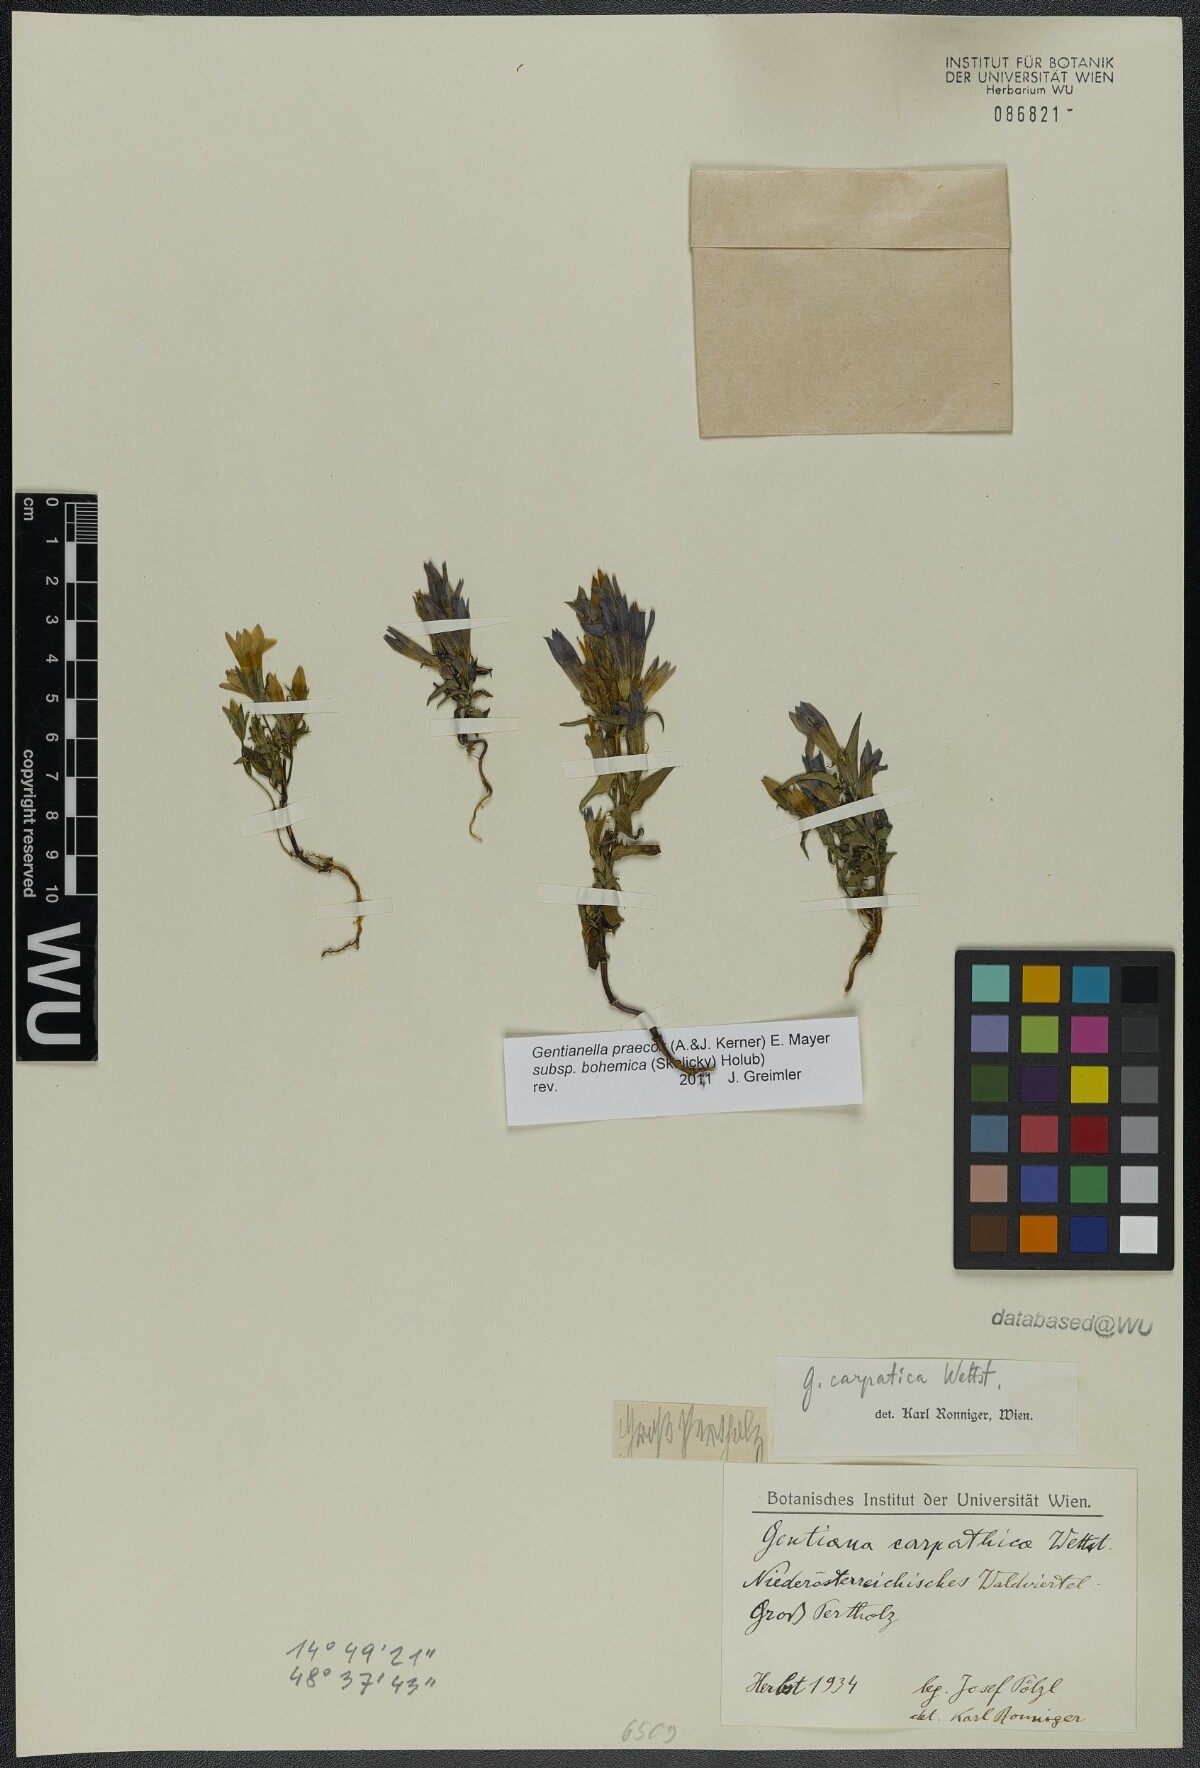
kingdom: Plantae
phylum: Tracheophyta
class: Magnoliopsida
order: Gentianales
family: Gentianaceae
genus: Gentianella
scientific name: Gentianella praecox
